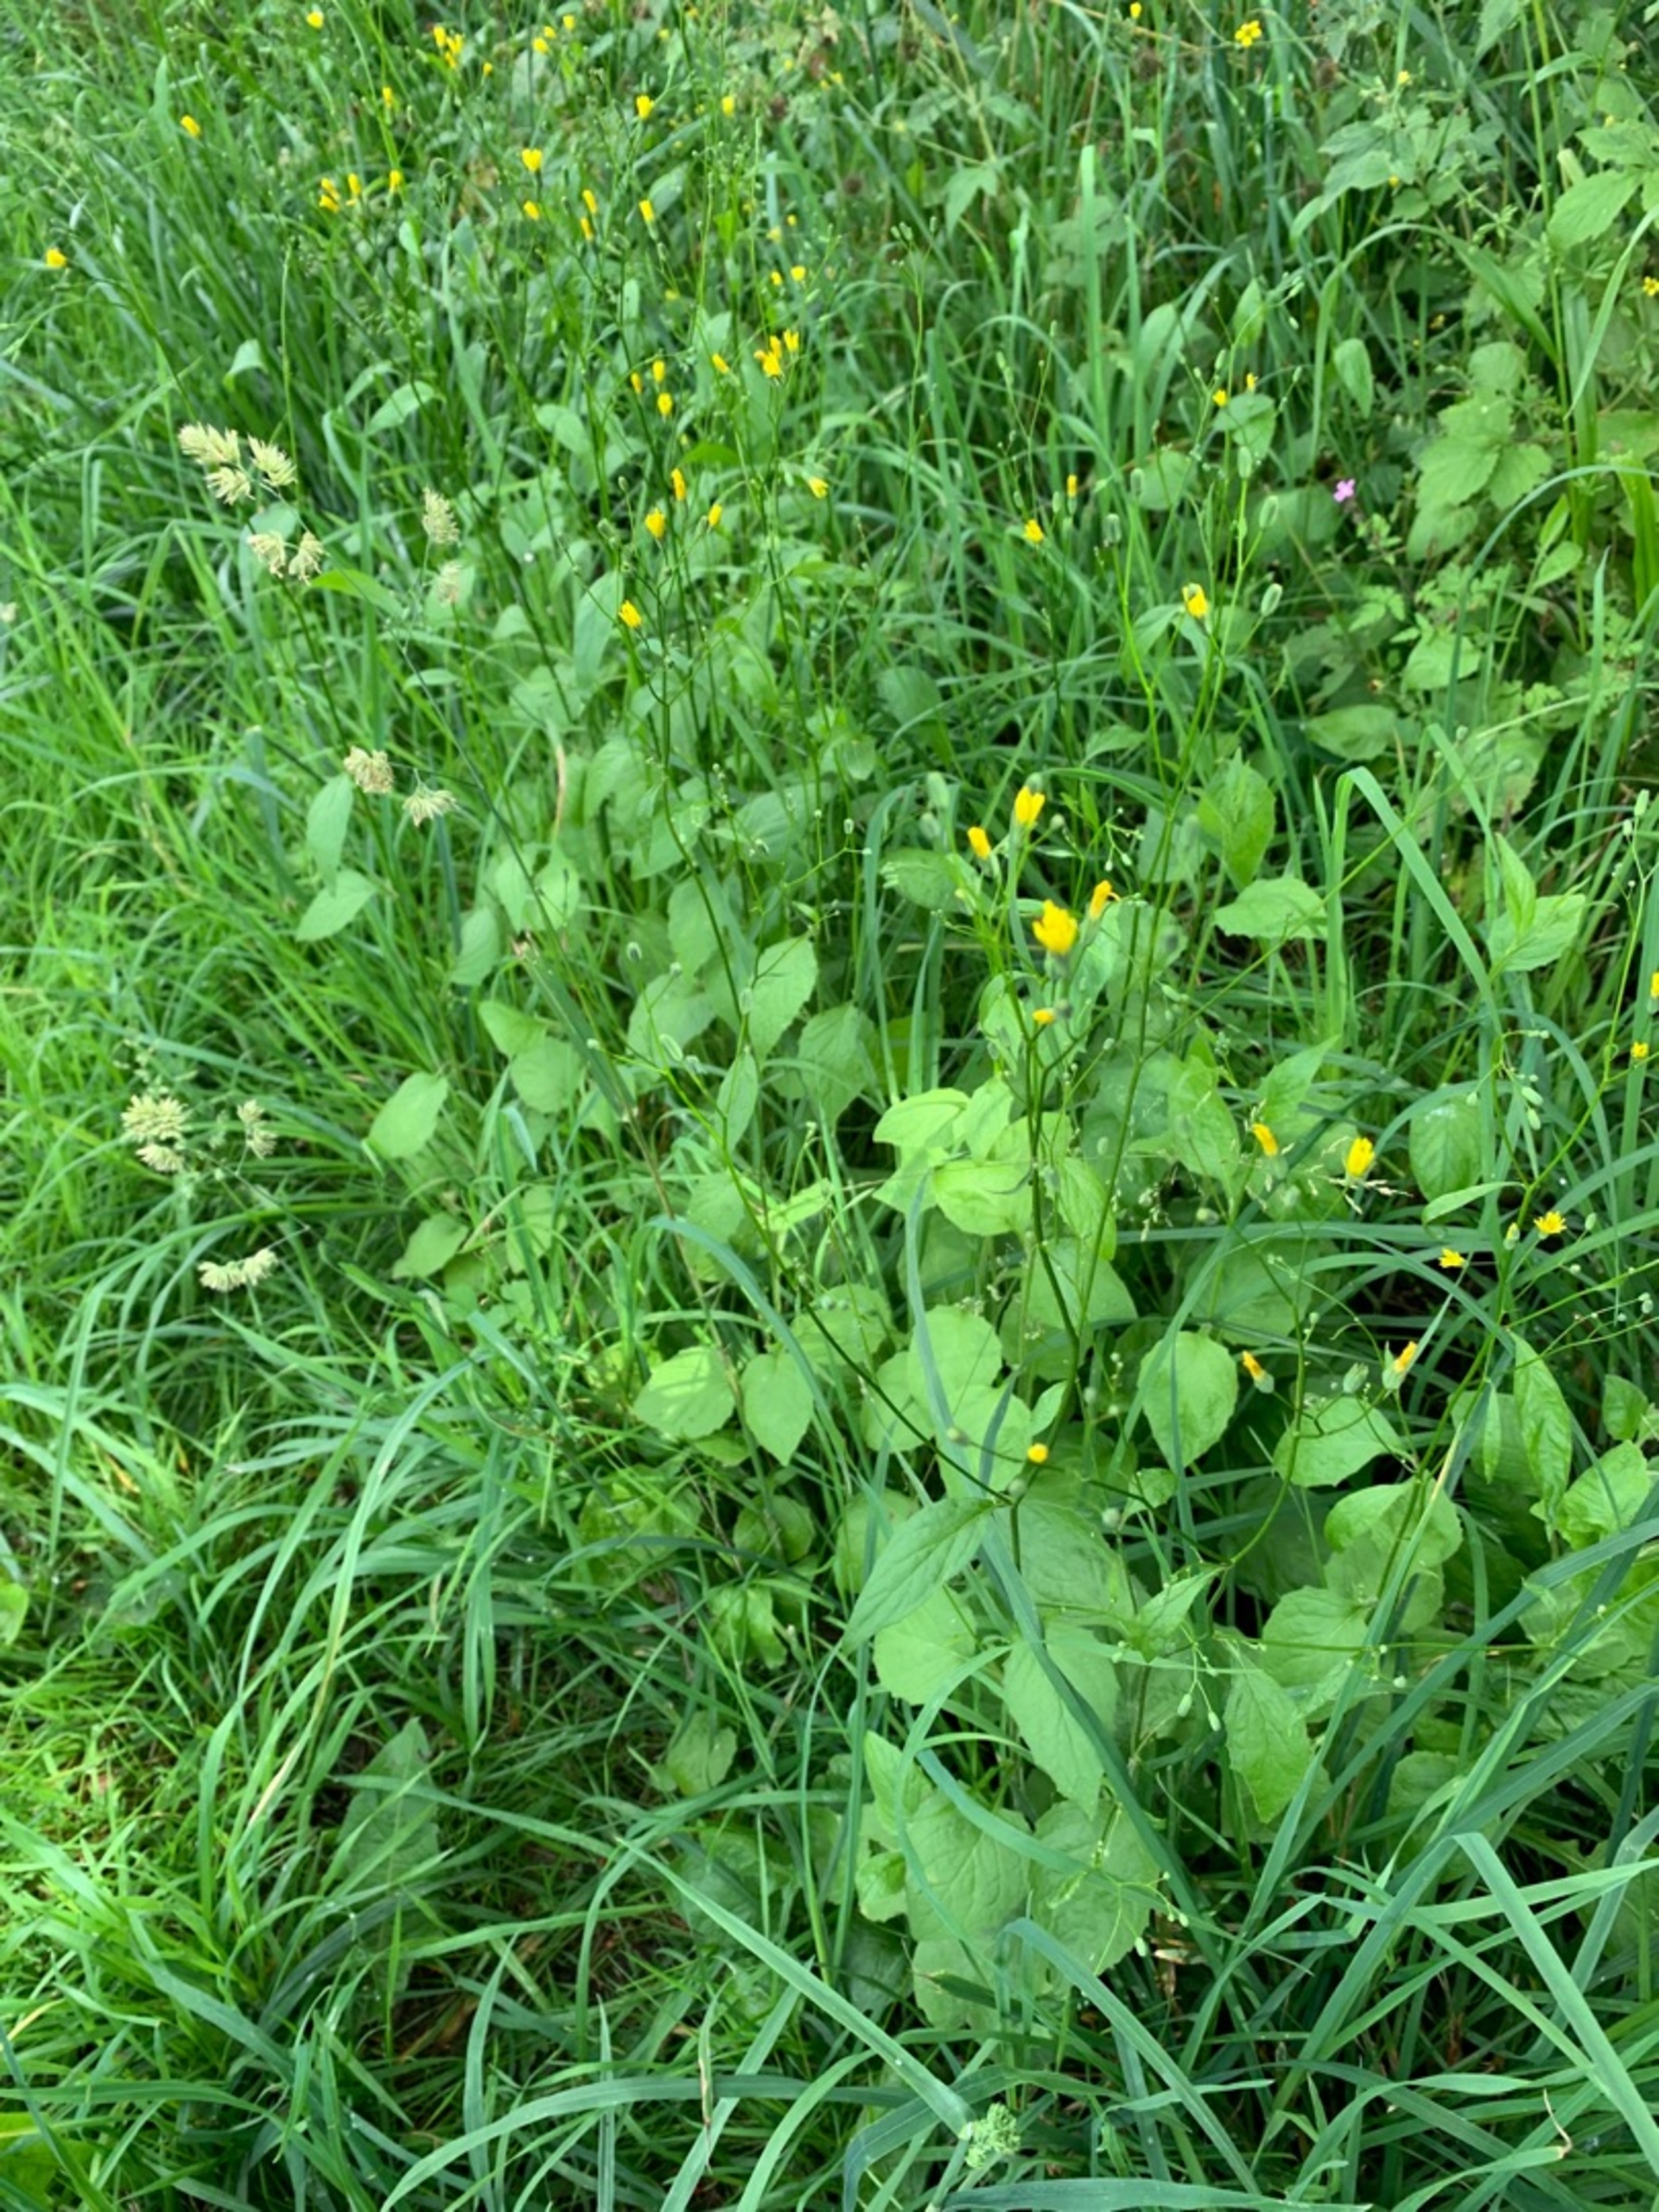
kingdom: Plantae
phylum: Tracheophyta
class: Magnoliopsida
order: Asterales
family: Asteraceae
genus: Lapsana
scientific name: Lapsana communis
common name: Haremad
